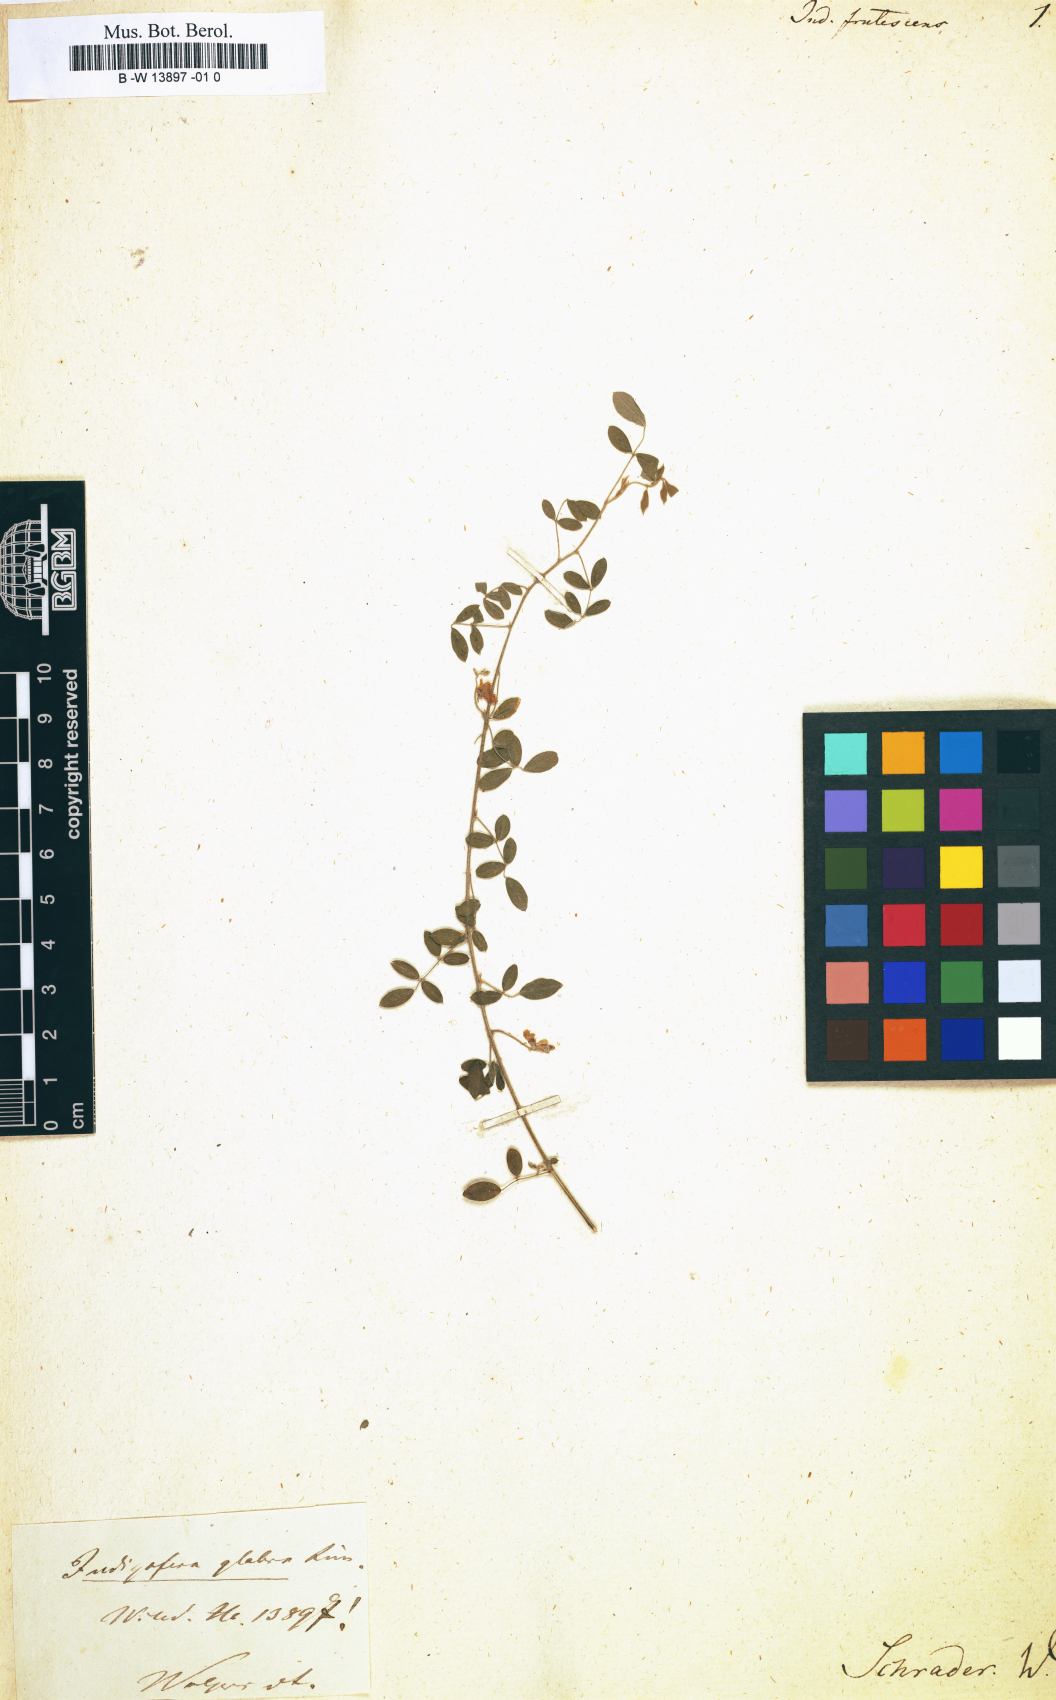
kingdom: Plantae
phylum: Tracheophyta
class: Magnoliopsida
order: Fabales
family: Fabaceae
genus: Indigofera
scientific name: Indigofera frutescens
